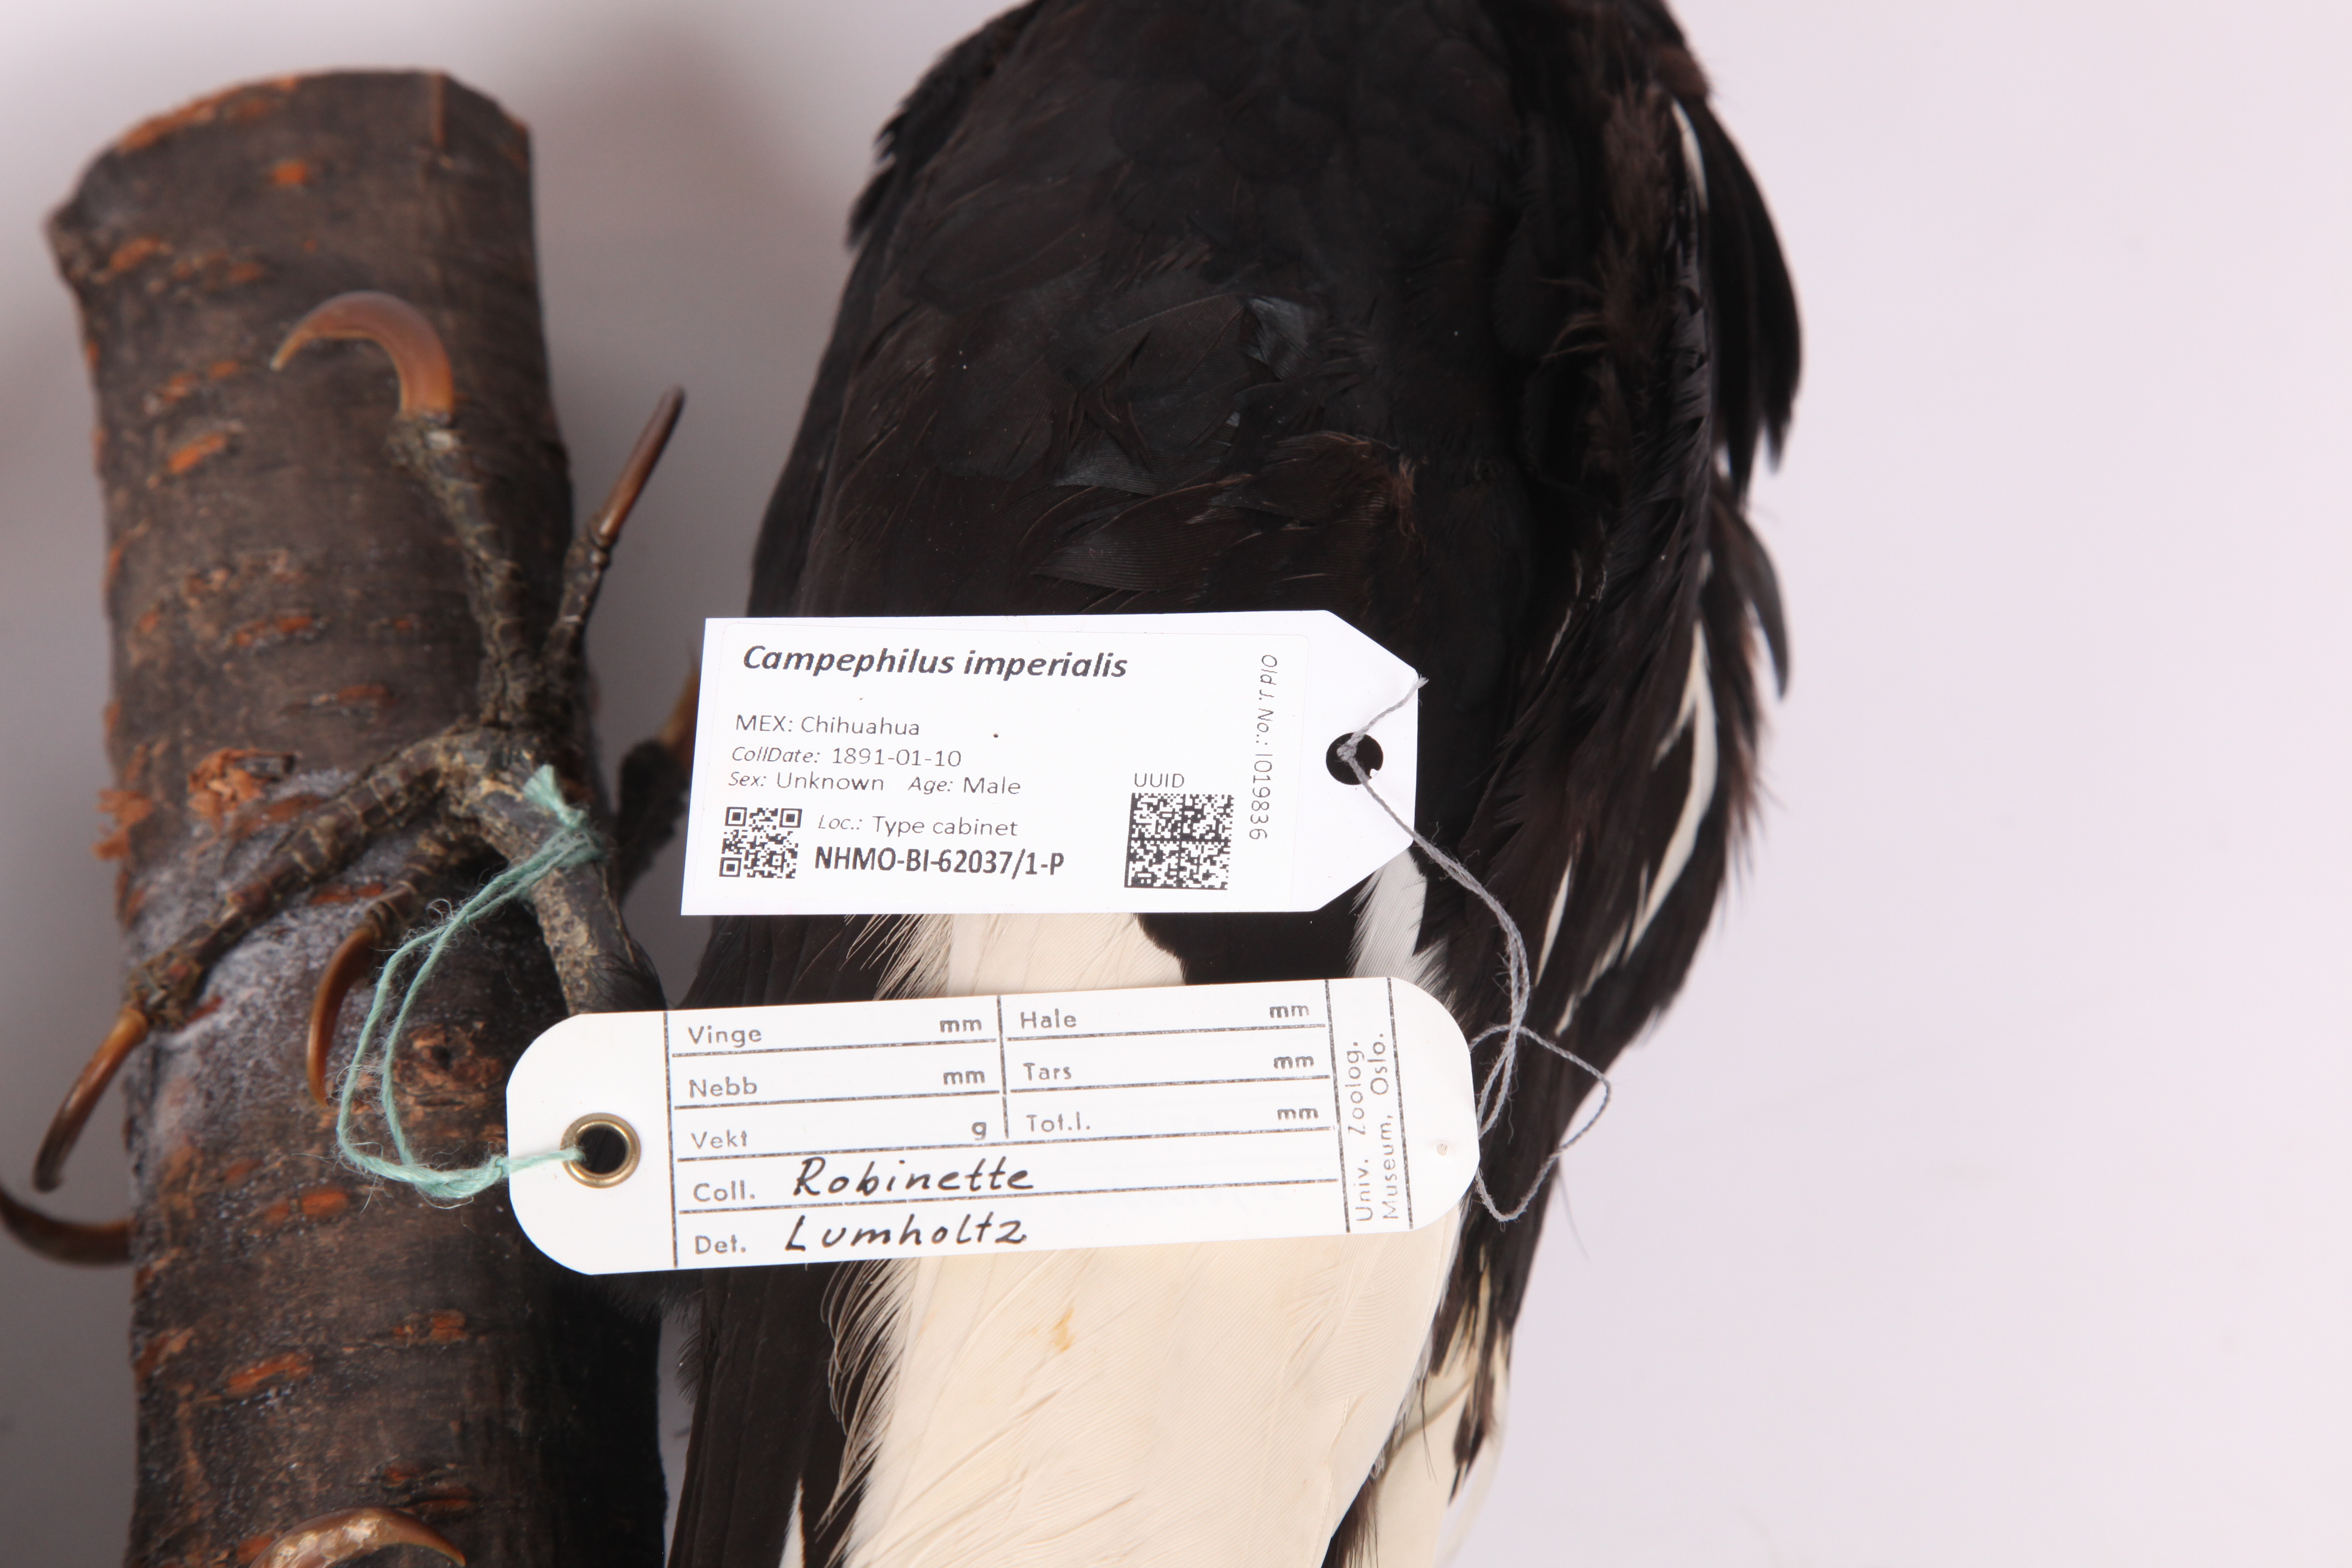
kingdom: Animalia
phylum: Chordata
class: Aves
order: Piciformes
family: Picidae
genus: Campephilus
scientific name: Campephilus imperialis
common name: Imperial woodpecker
